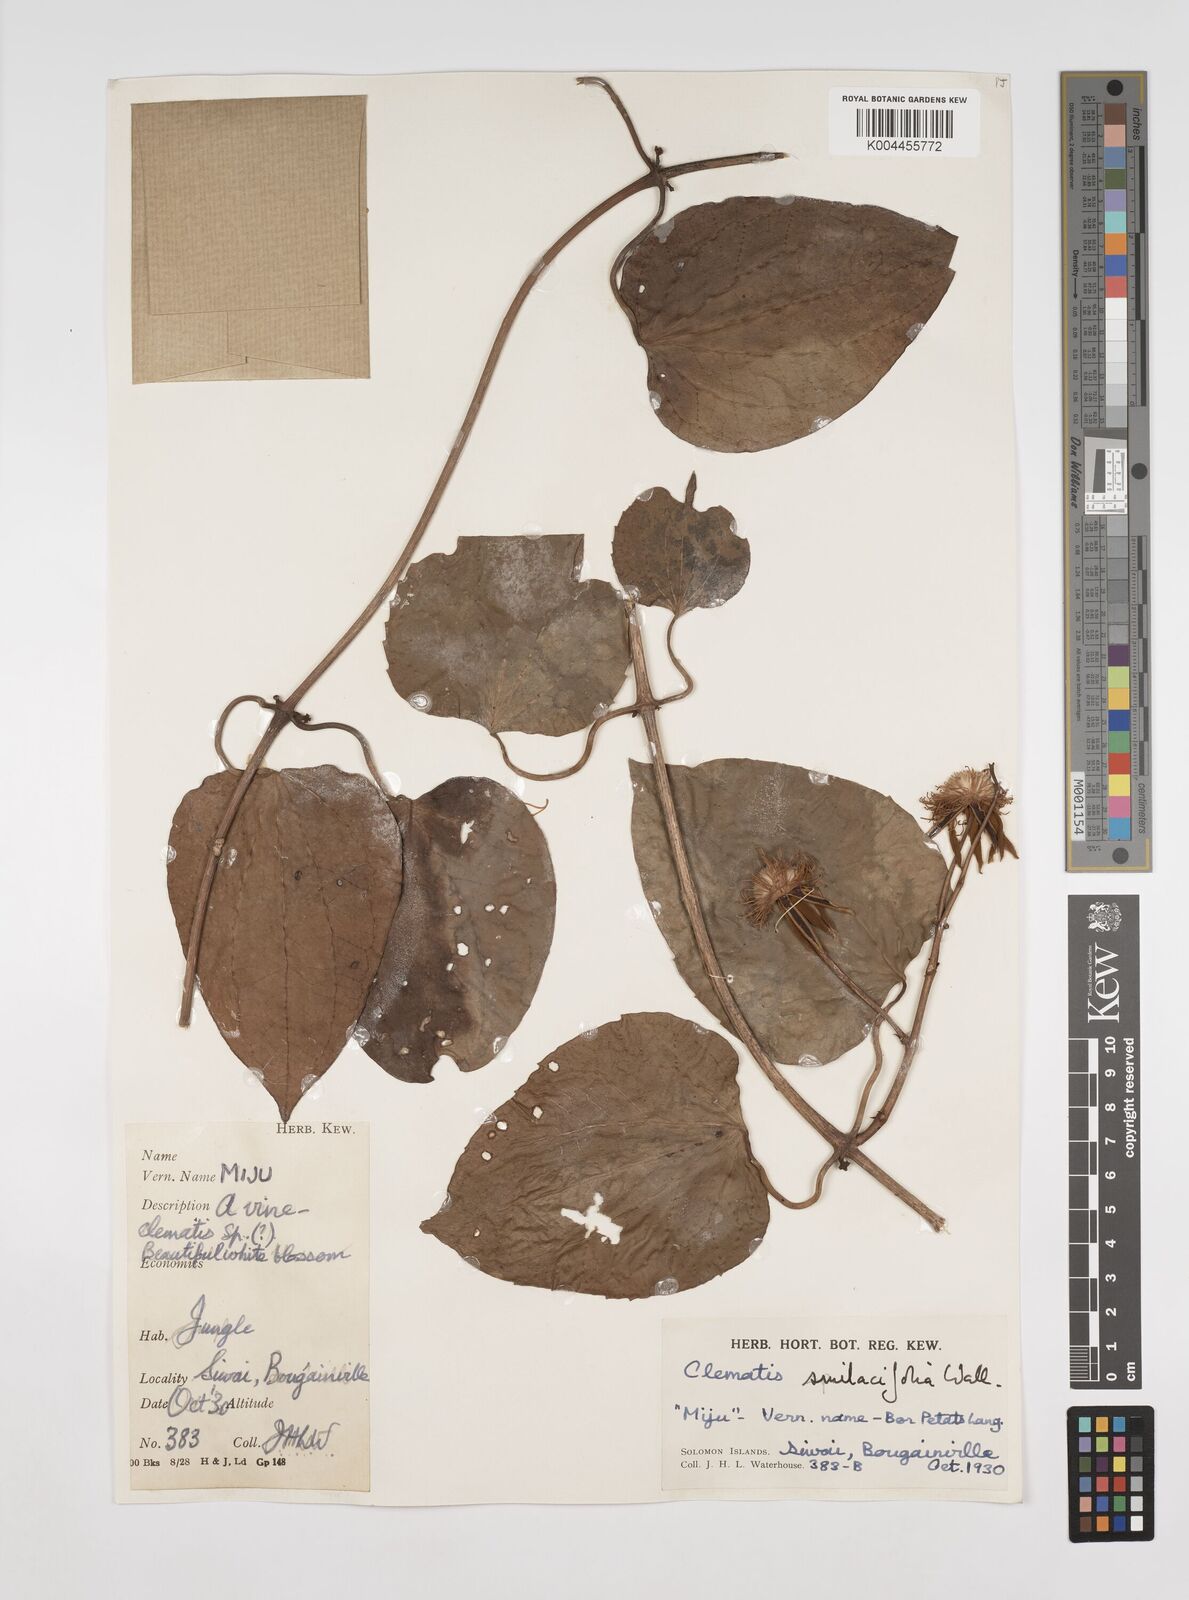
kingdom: Plantae
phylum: Tracheophyta
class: Magnoliopsida
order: Ranunculales
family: Ranunculaceae
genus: Clematis
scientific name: Clematis smilacifolia
